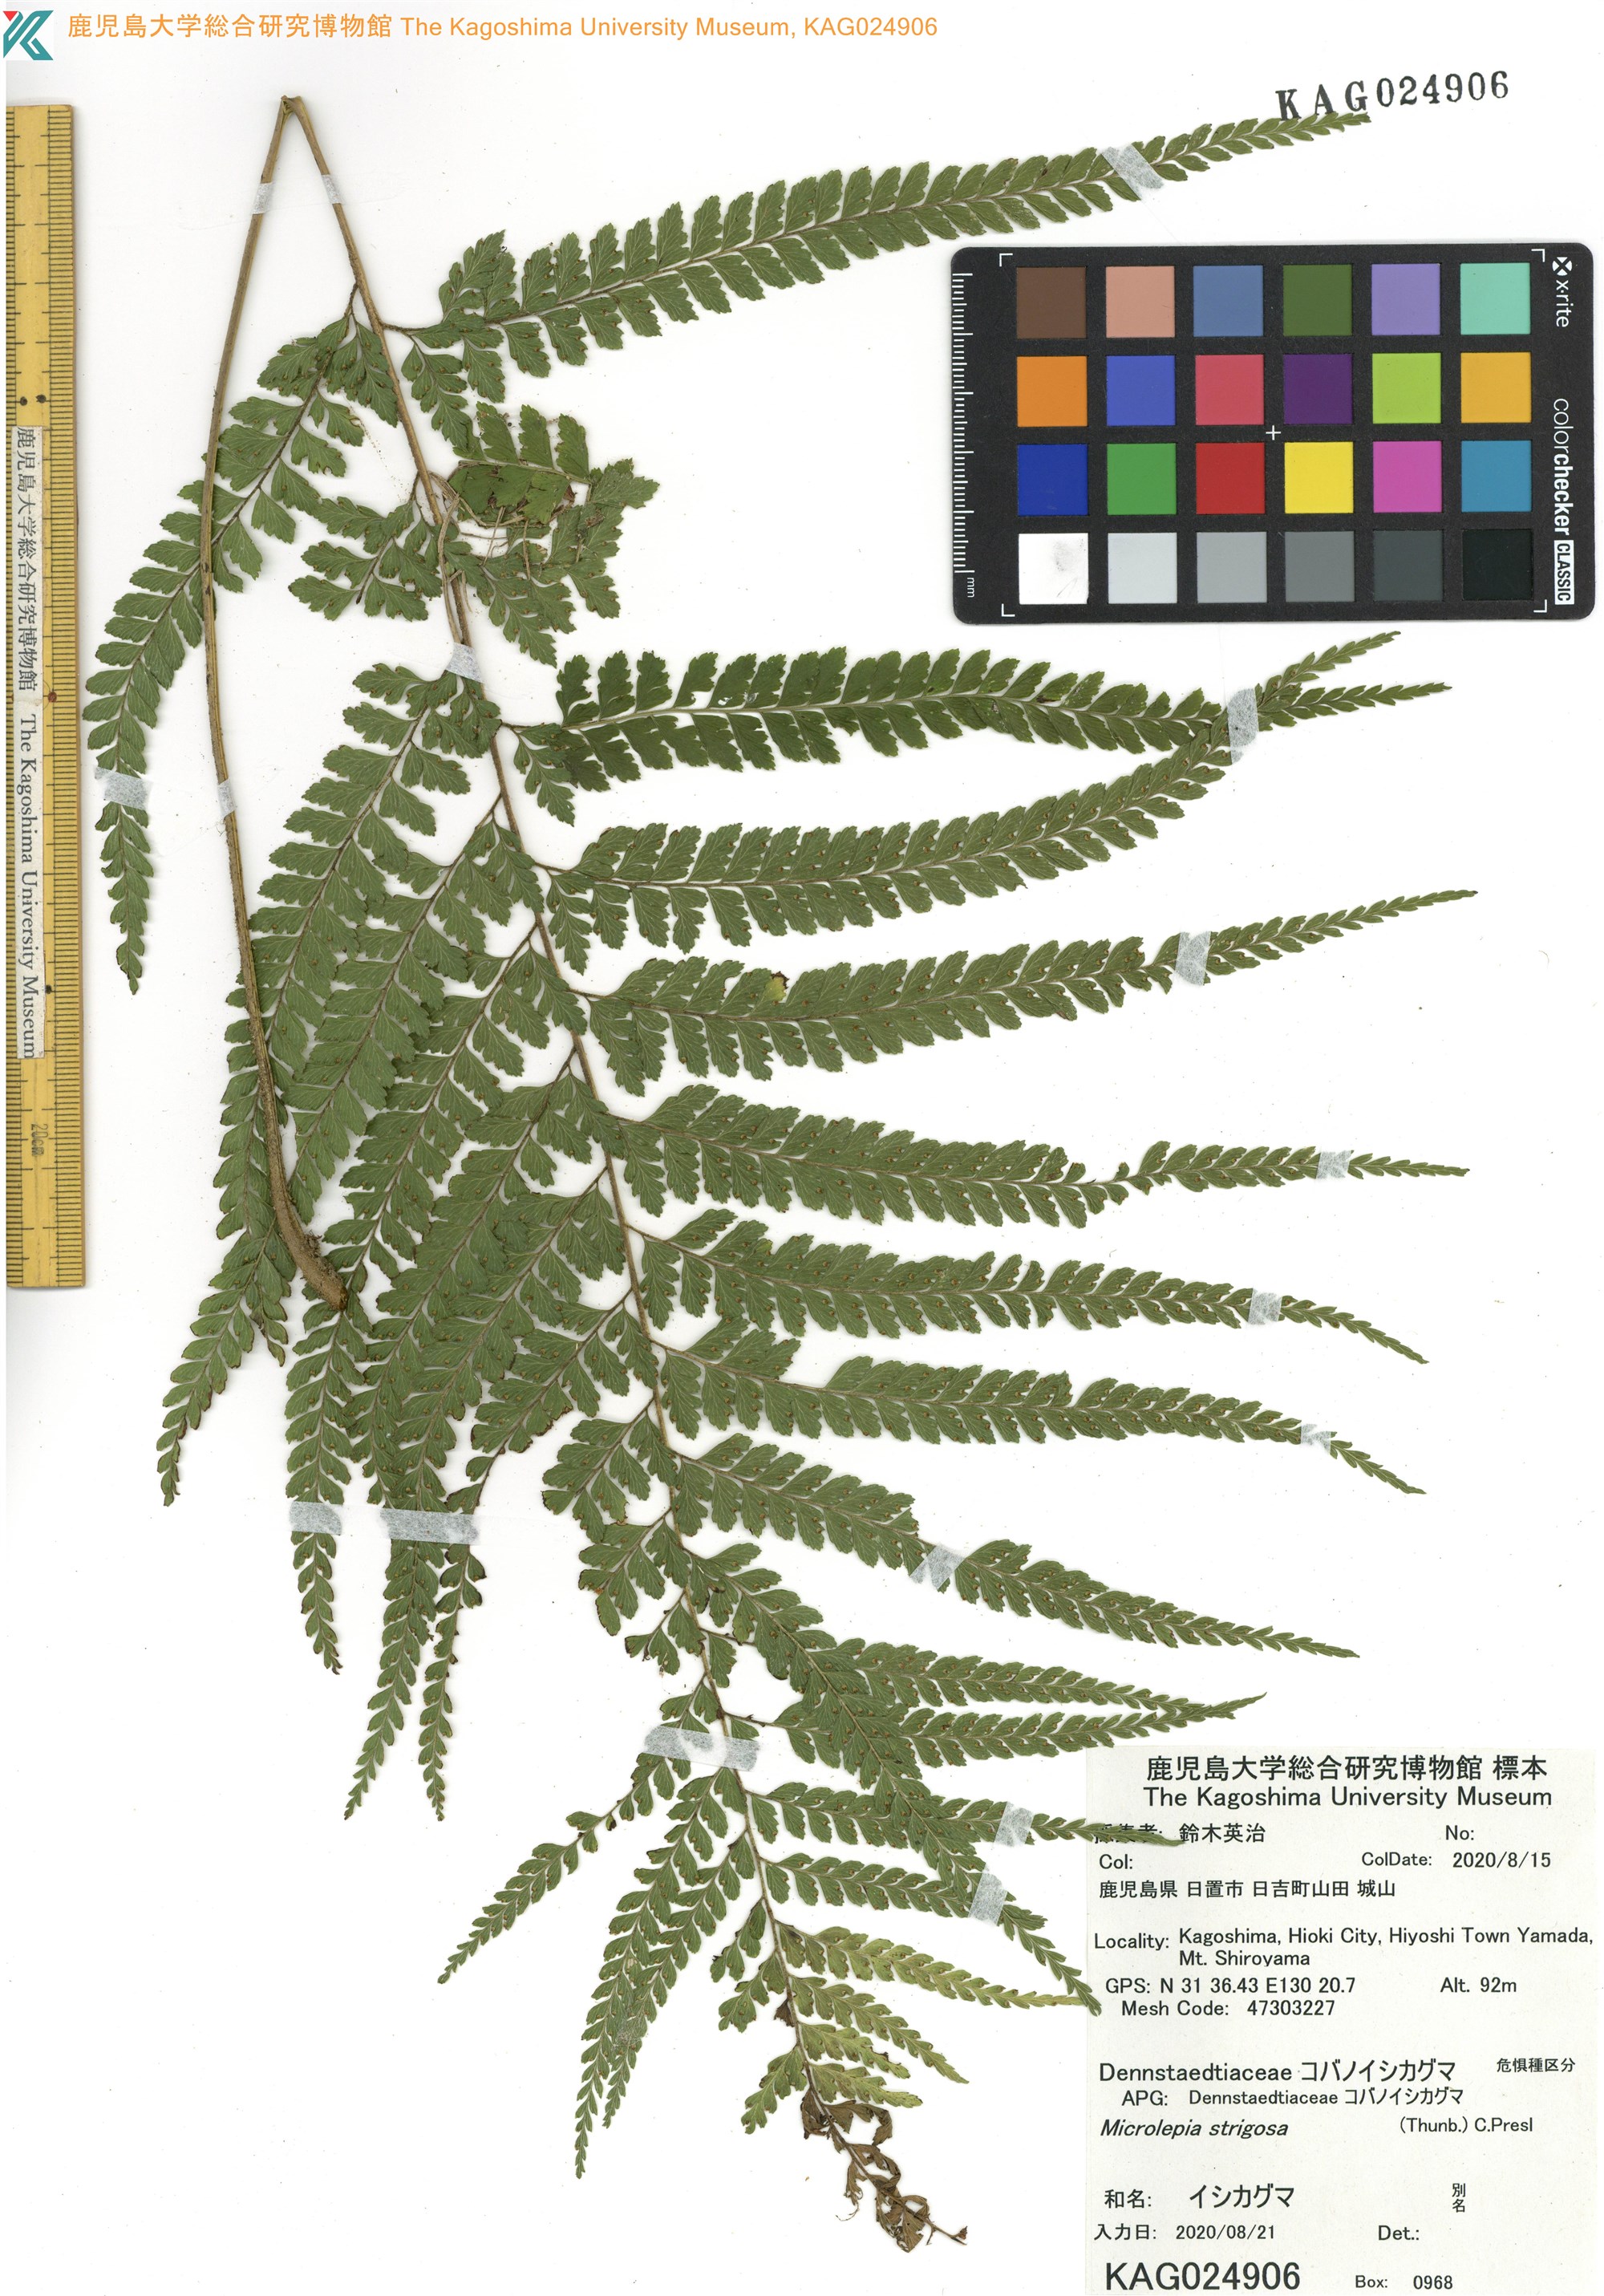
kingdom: Plantae
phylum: Tracheophyta
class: Polypodiopsida
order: Polypodiales
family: Dennstaedtiaceae
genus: Microlepia
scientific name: Microlepia strigosa
